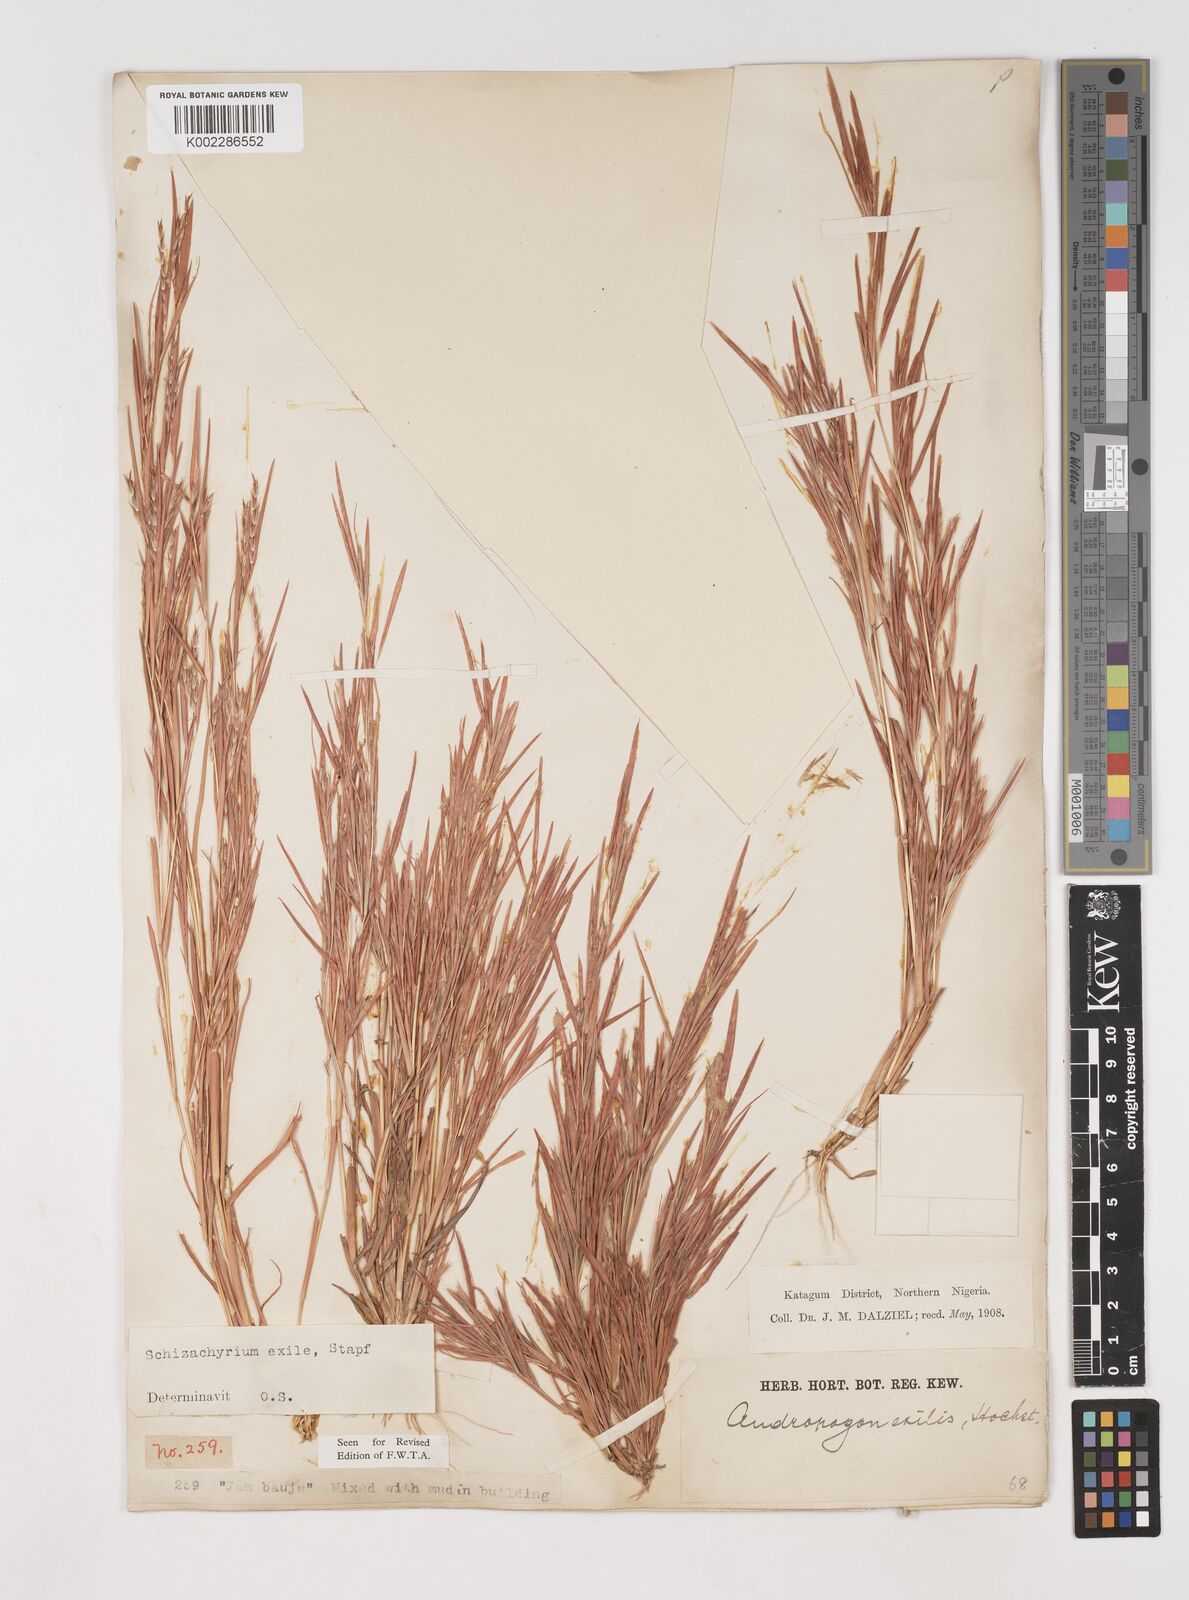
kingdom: Plantae
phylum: Tracheophyta
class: Liliopsida
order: Poales
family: Poaceae
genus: Schizachyrium
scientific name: Schizachyrium exile
